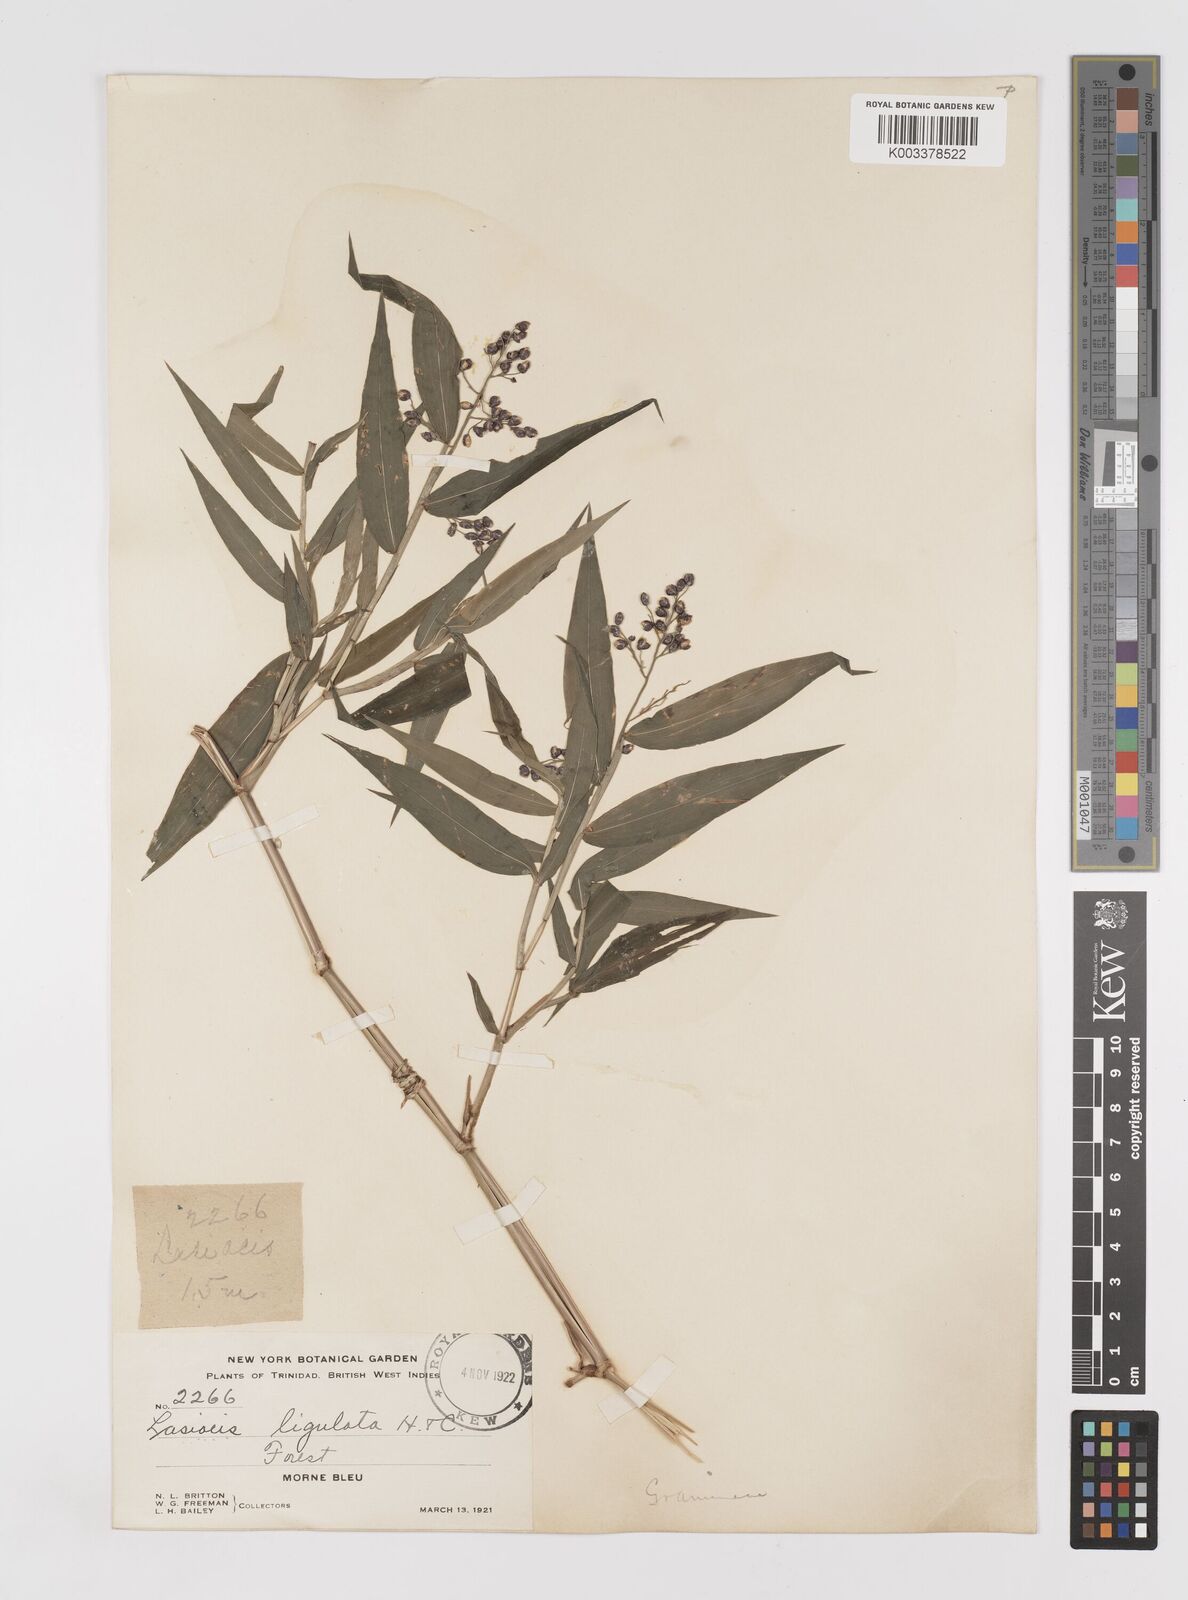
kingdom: Plantae
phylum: Tracheophyta
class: Liliopsida
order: Poales
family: Poaceae
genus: Lasiacis
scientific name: Lasiacis ligulata
